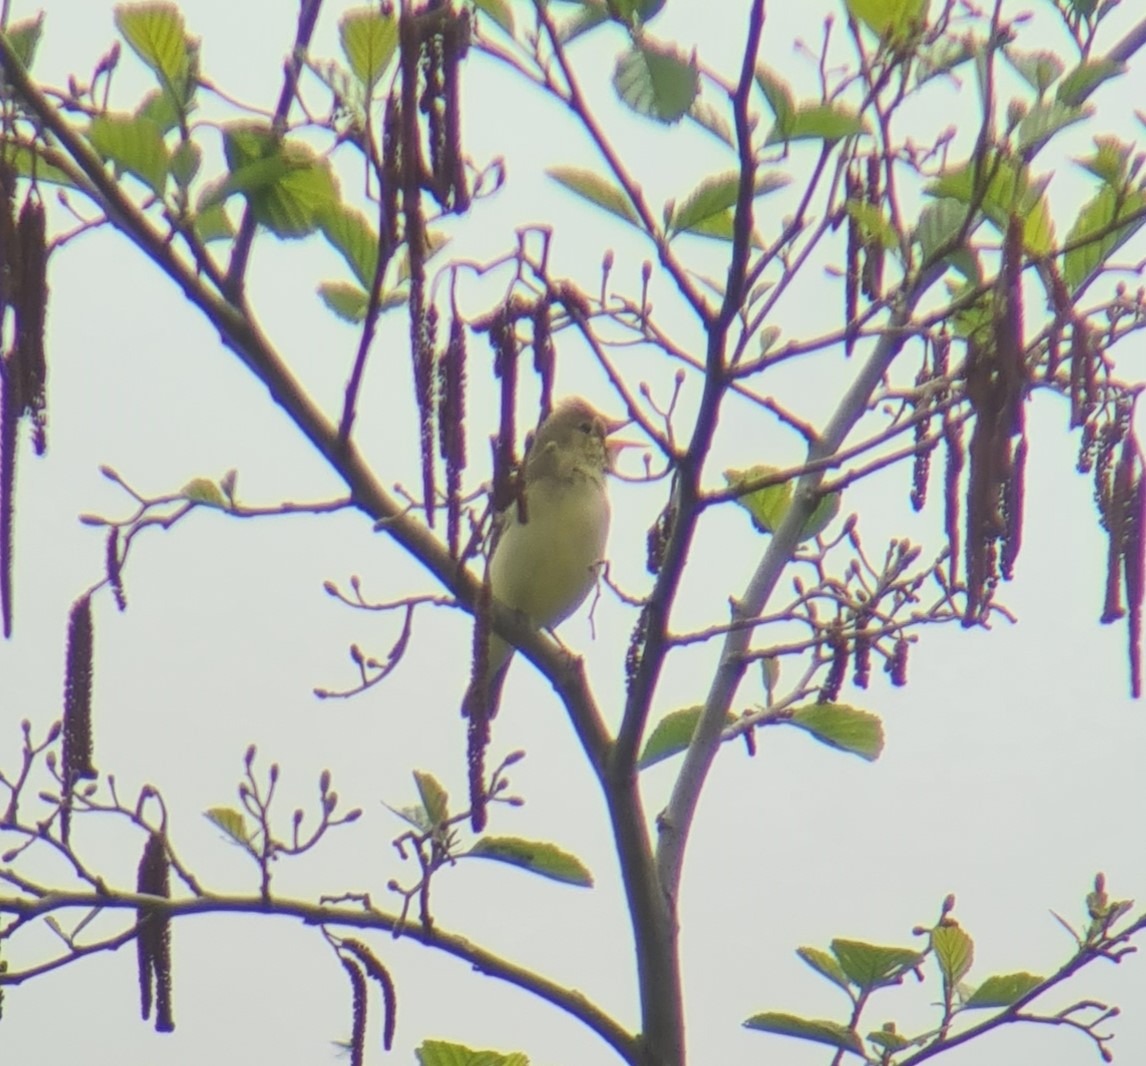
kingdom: Animalia
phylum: Chordata
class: Aves
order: Passeriformes
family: Acrocephalidae
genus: Hippolais
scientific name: Hippolais icterina
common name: Gulbug
